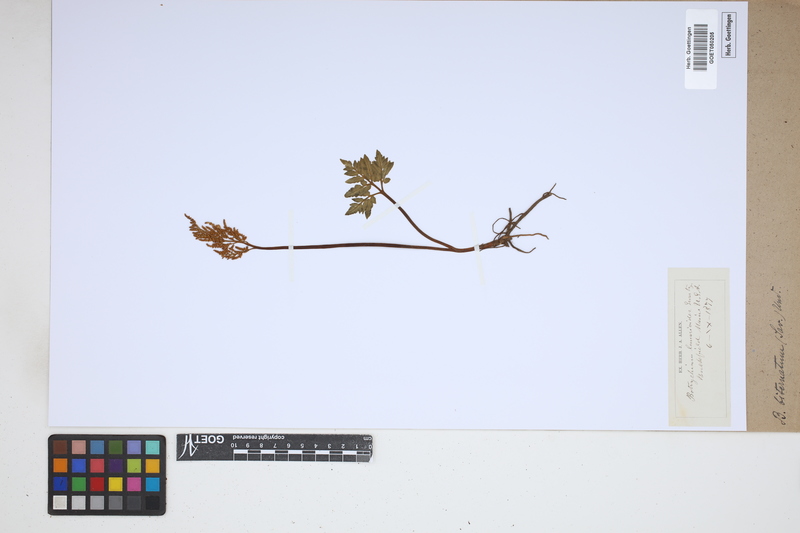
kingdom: Plantae
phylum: Tracheophyta
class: Polypodiopsida
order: Ophioglossales
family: Ophioglossaceae
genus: Sceptridium
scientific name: Sceptridium biternatum
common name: Sparse-lobed grapefern
